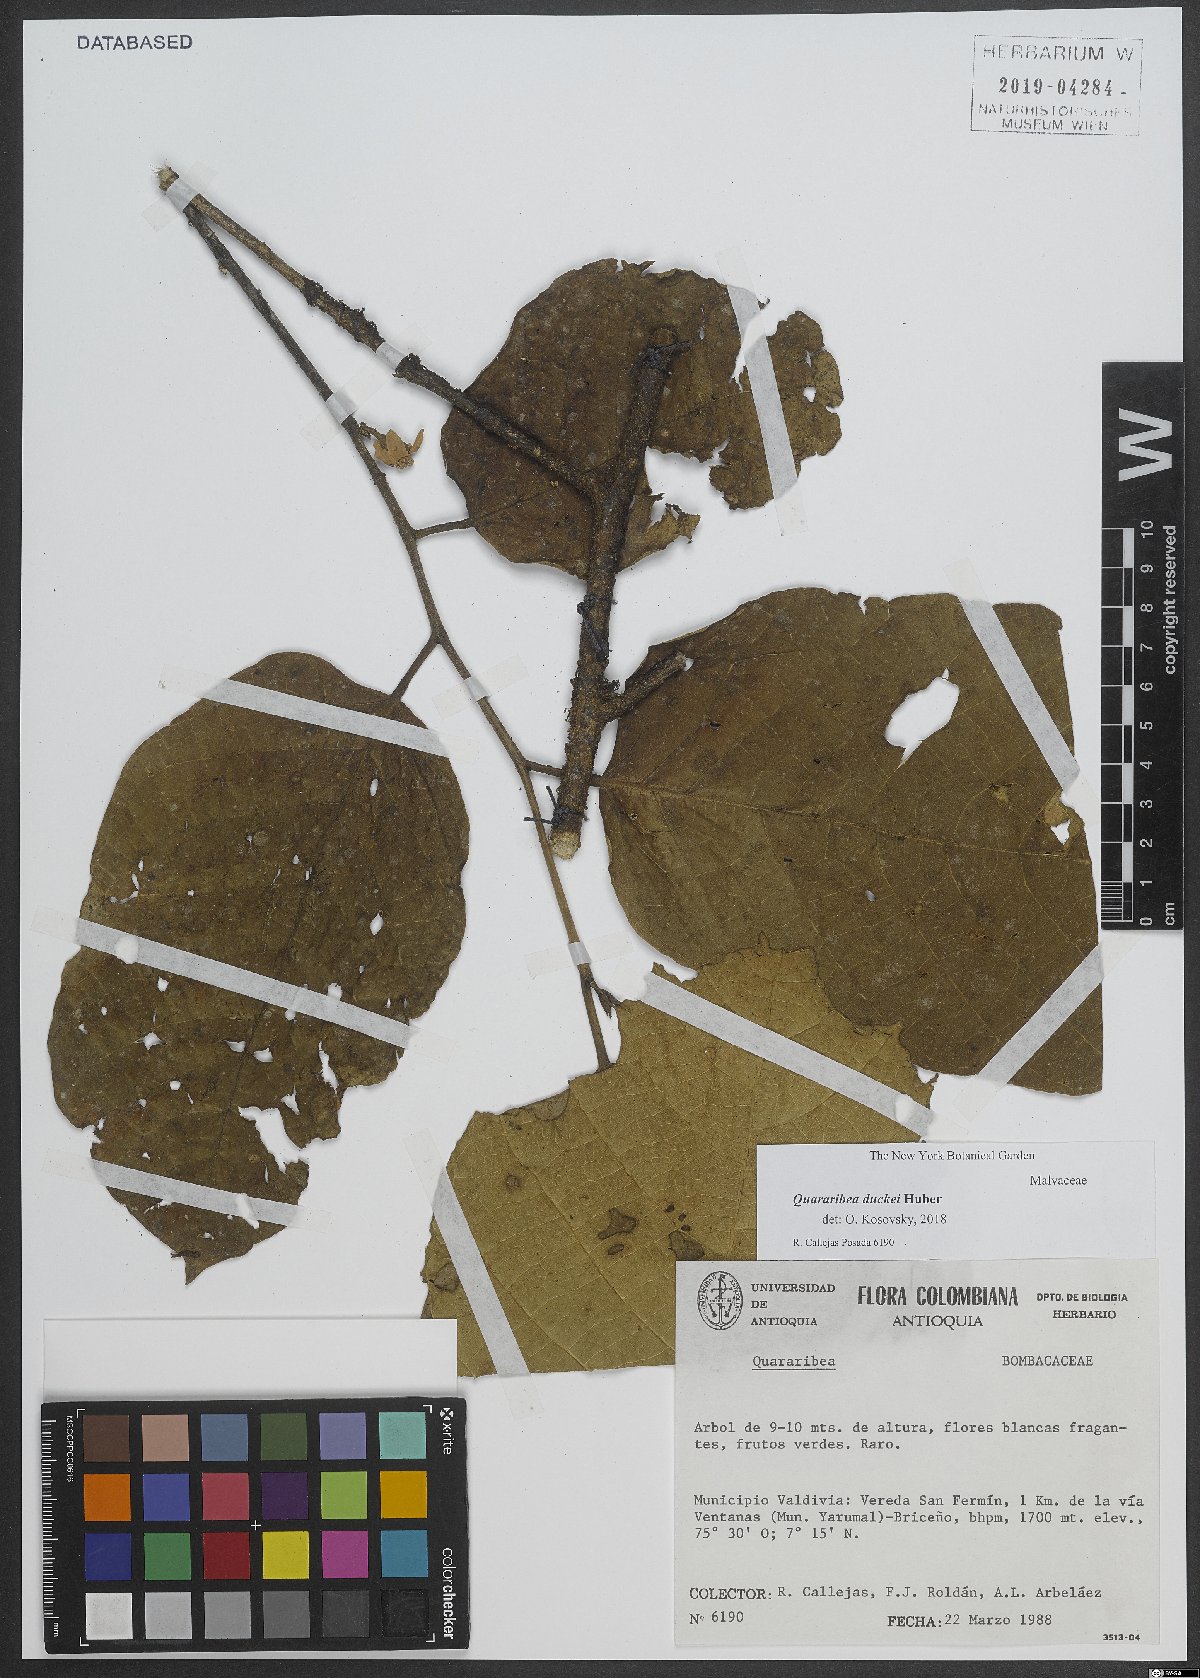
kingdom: Plantae
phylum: Tracheophyta
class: Magnoliopsida
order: Malvales
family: Malvaceae
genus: Quararibea
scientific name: Quararibea duckei
